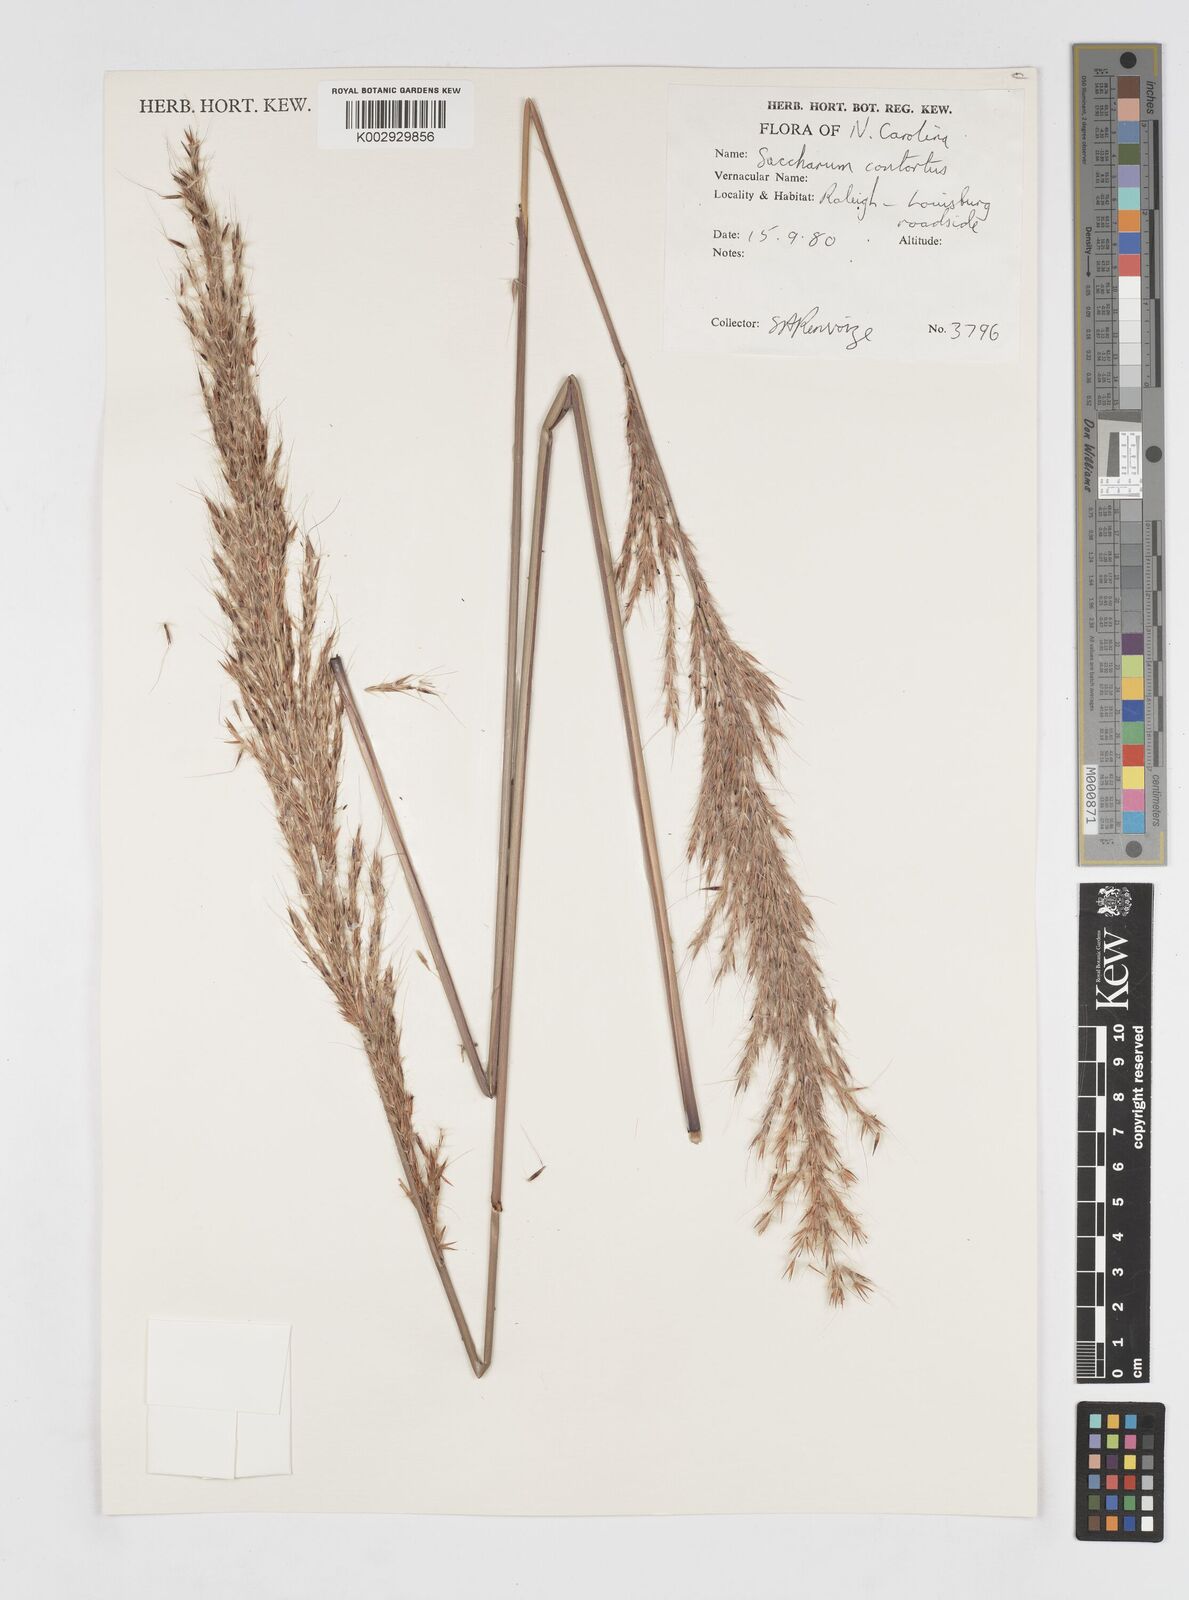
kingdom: Plantae
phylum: Tracheophyta
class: Liliopsida
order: Poales
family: Poaceae
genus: Erianthus
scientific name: Erianthus contortus
